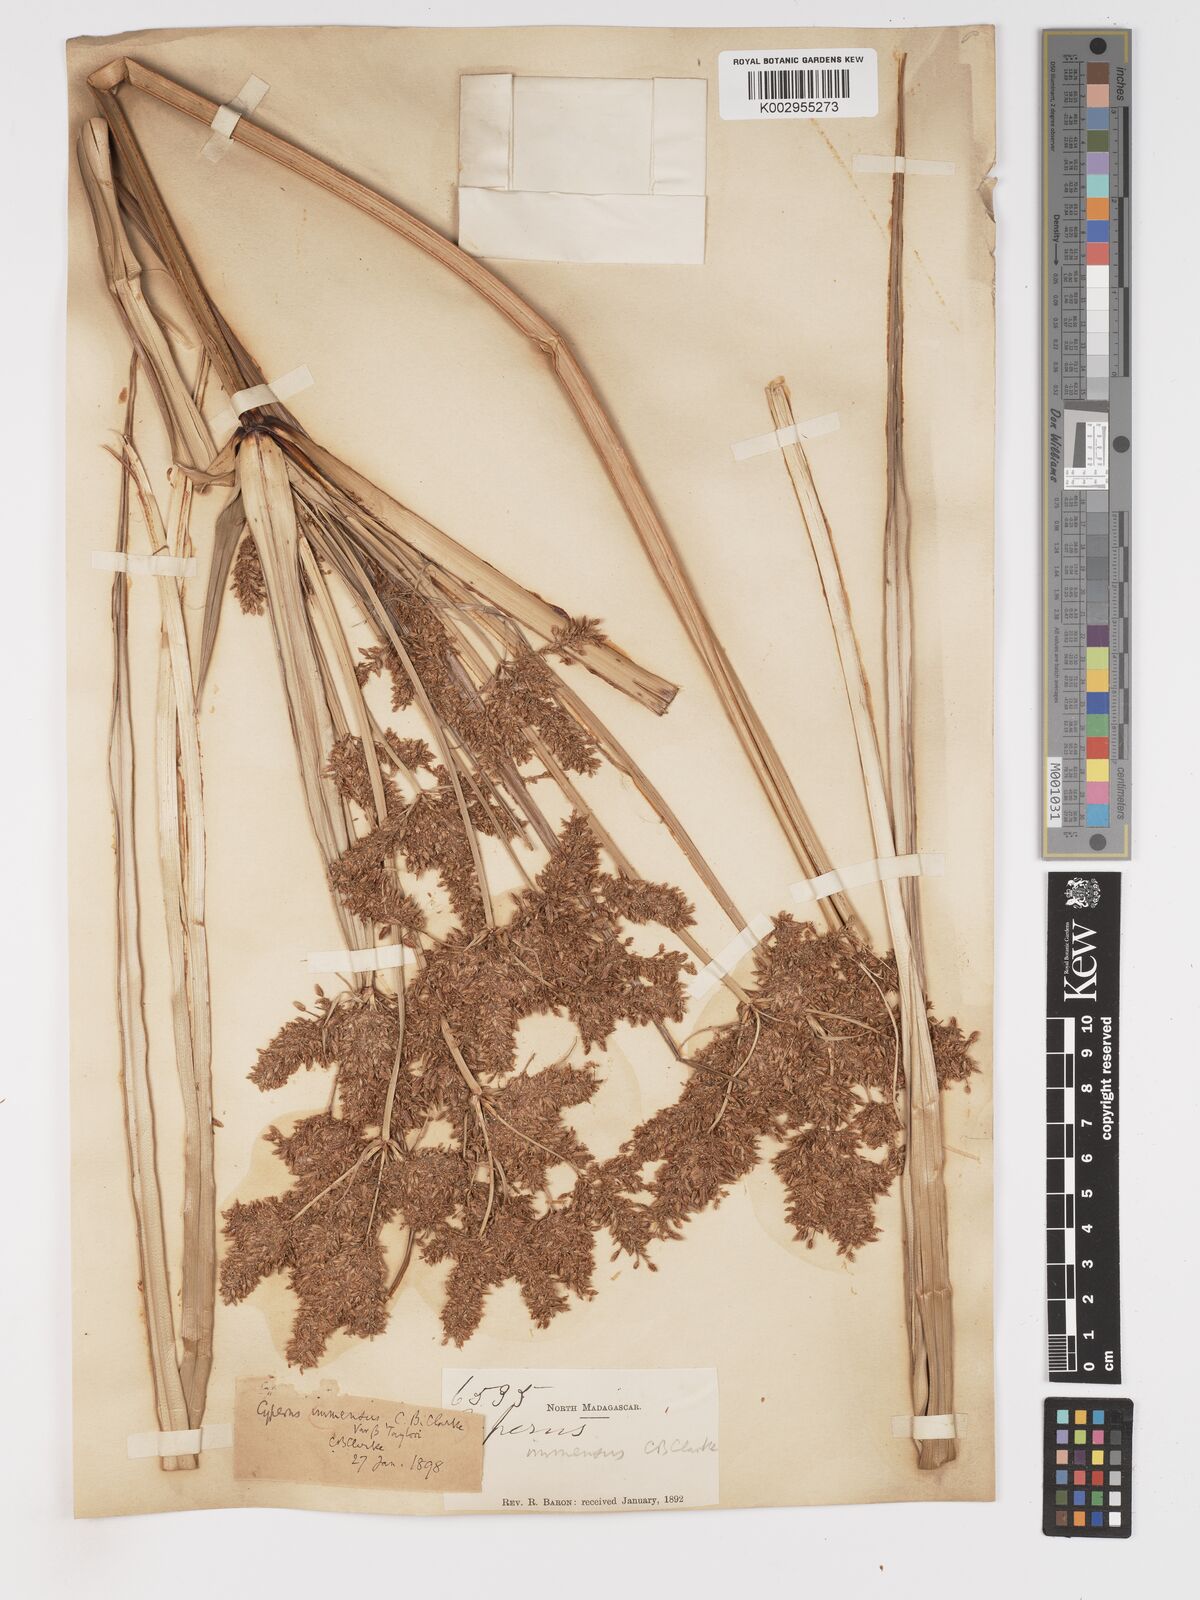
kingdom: Plantae
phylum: Tracheophyta
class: Liliopsida
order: Poales
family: Cyperaceae
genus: Cyperus
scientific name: Cyperus dives
